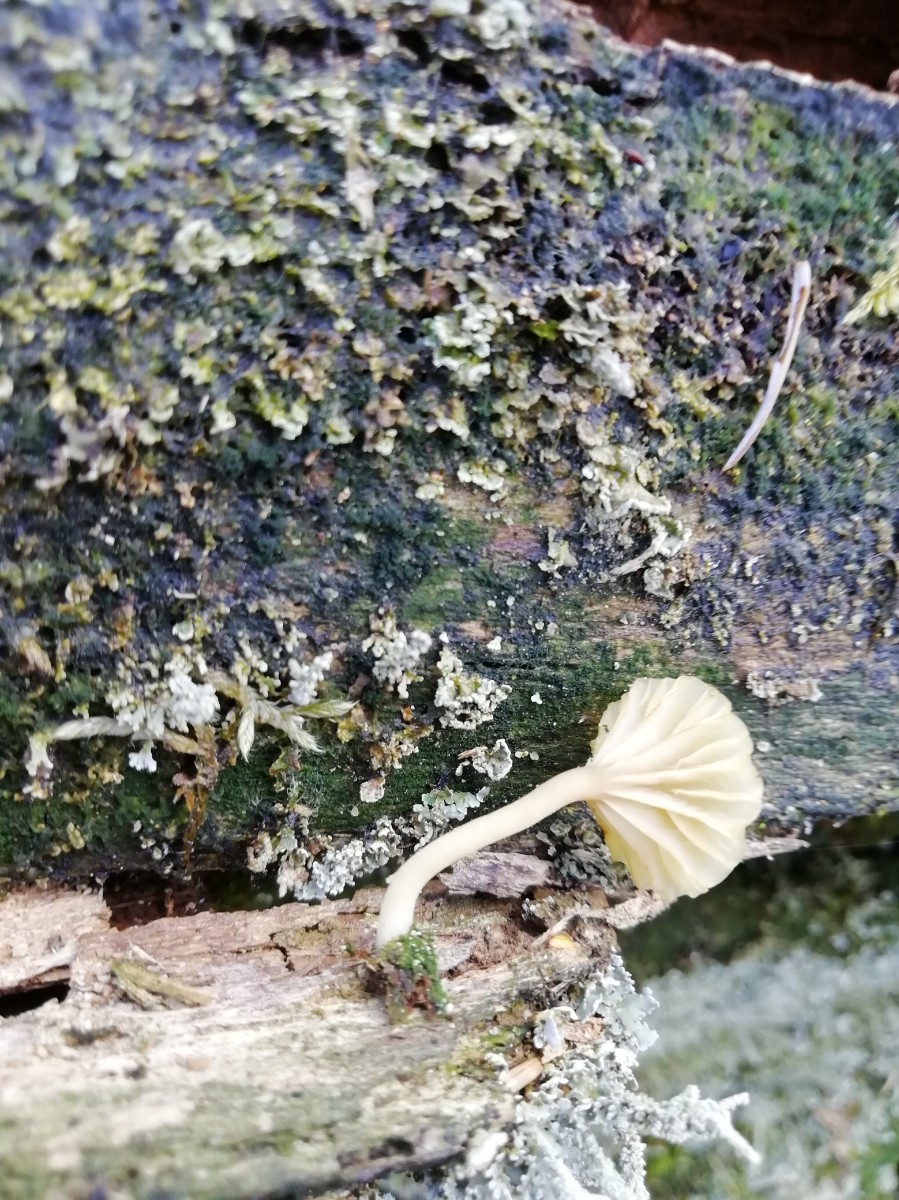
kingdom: Fungi
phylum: Basidiomycota
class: Agaricomycetes
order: Agaricales
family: Hygrophoraceae
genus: Lichenomphalia
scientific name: Lichenomphalia umbellifera
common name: tørve-lavhat
